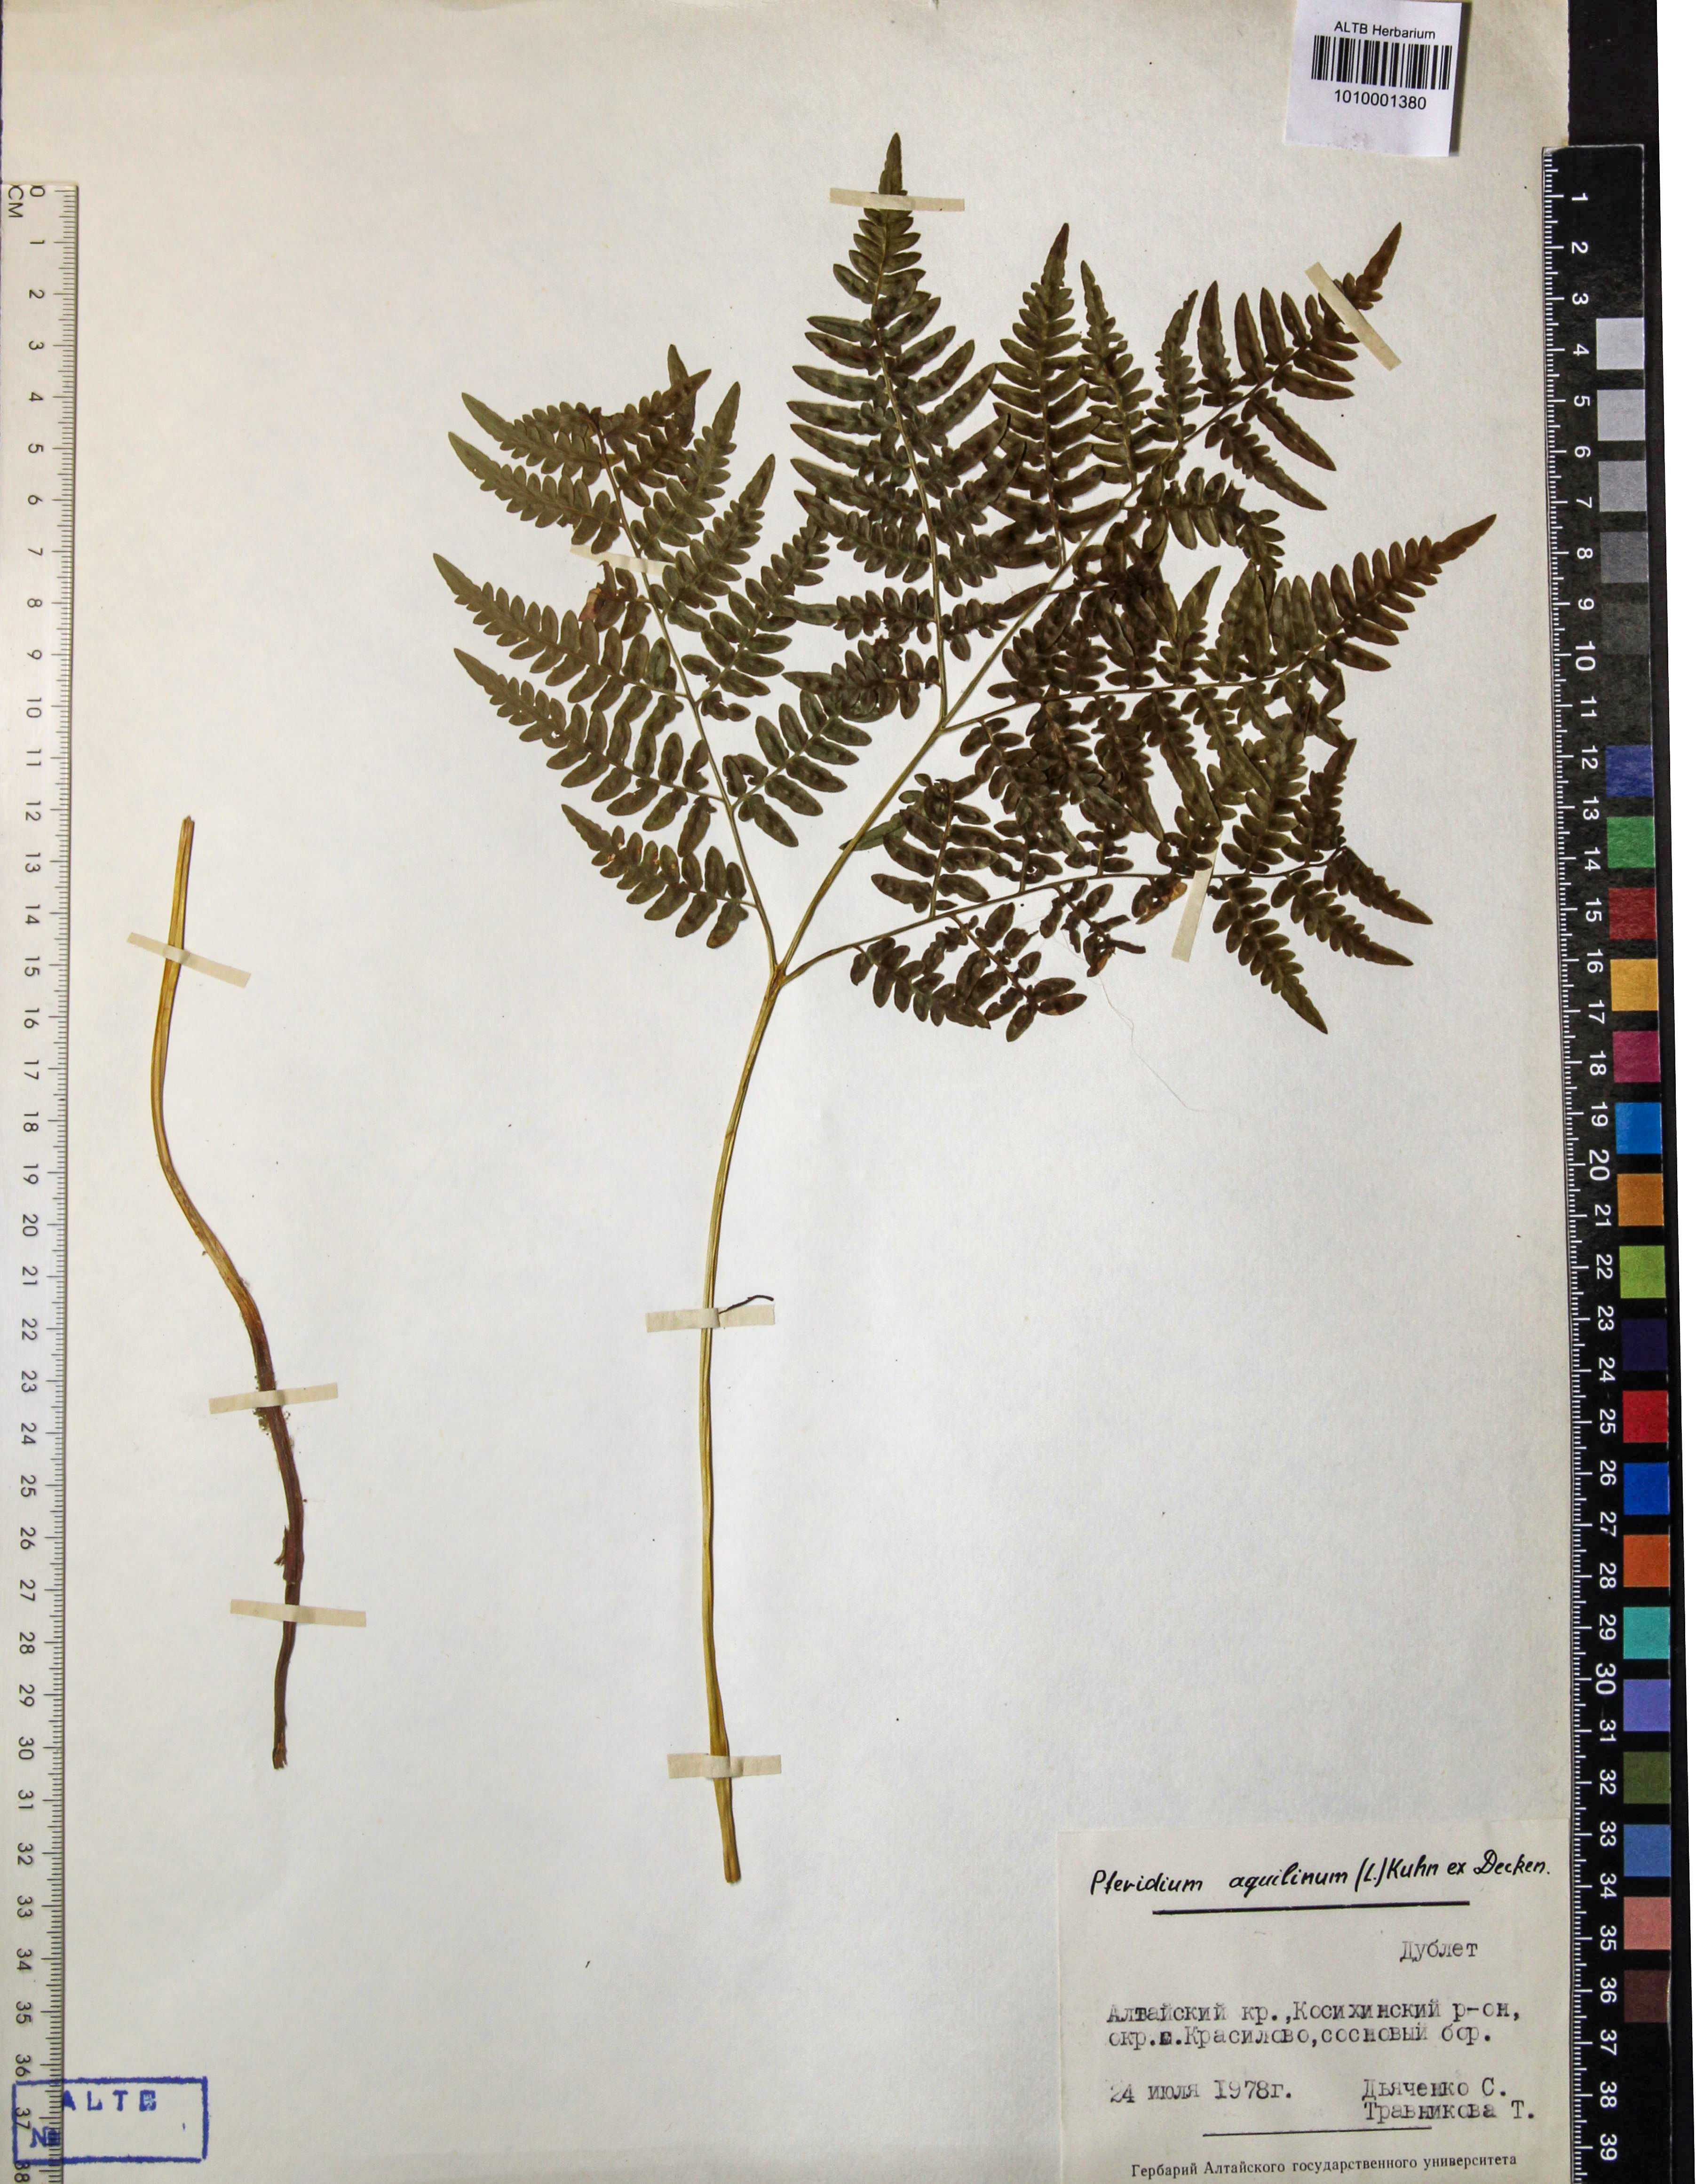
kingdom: Plantae
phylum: Tracheophyta
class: Polypodiopsida
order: Polypodiales
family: Dennstaedtiaceae
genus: Pteridium
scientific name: Pteridium aquilinum
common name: Bracken
